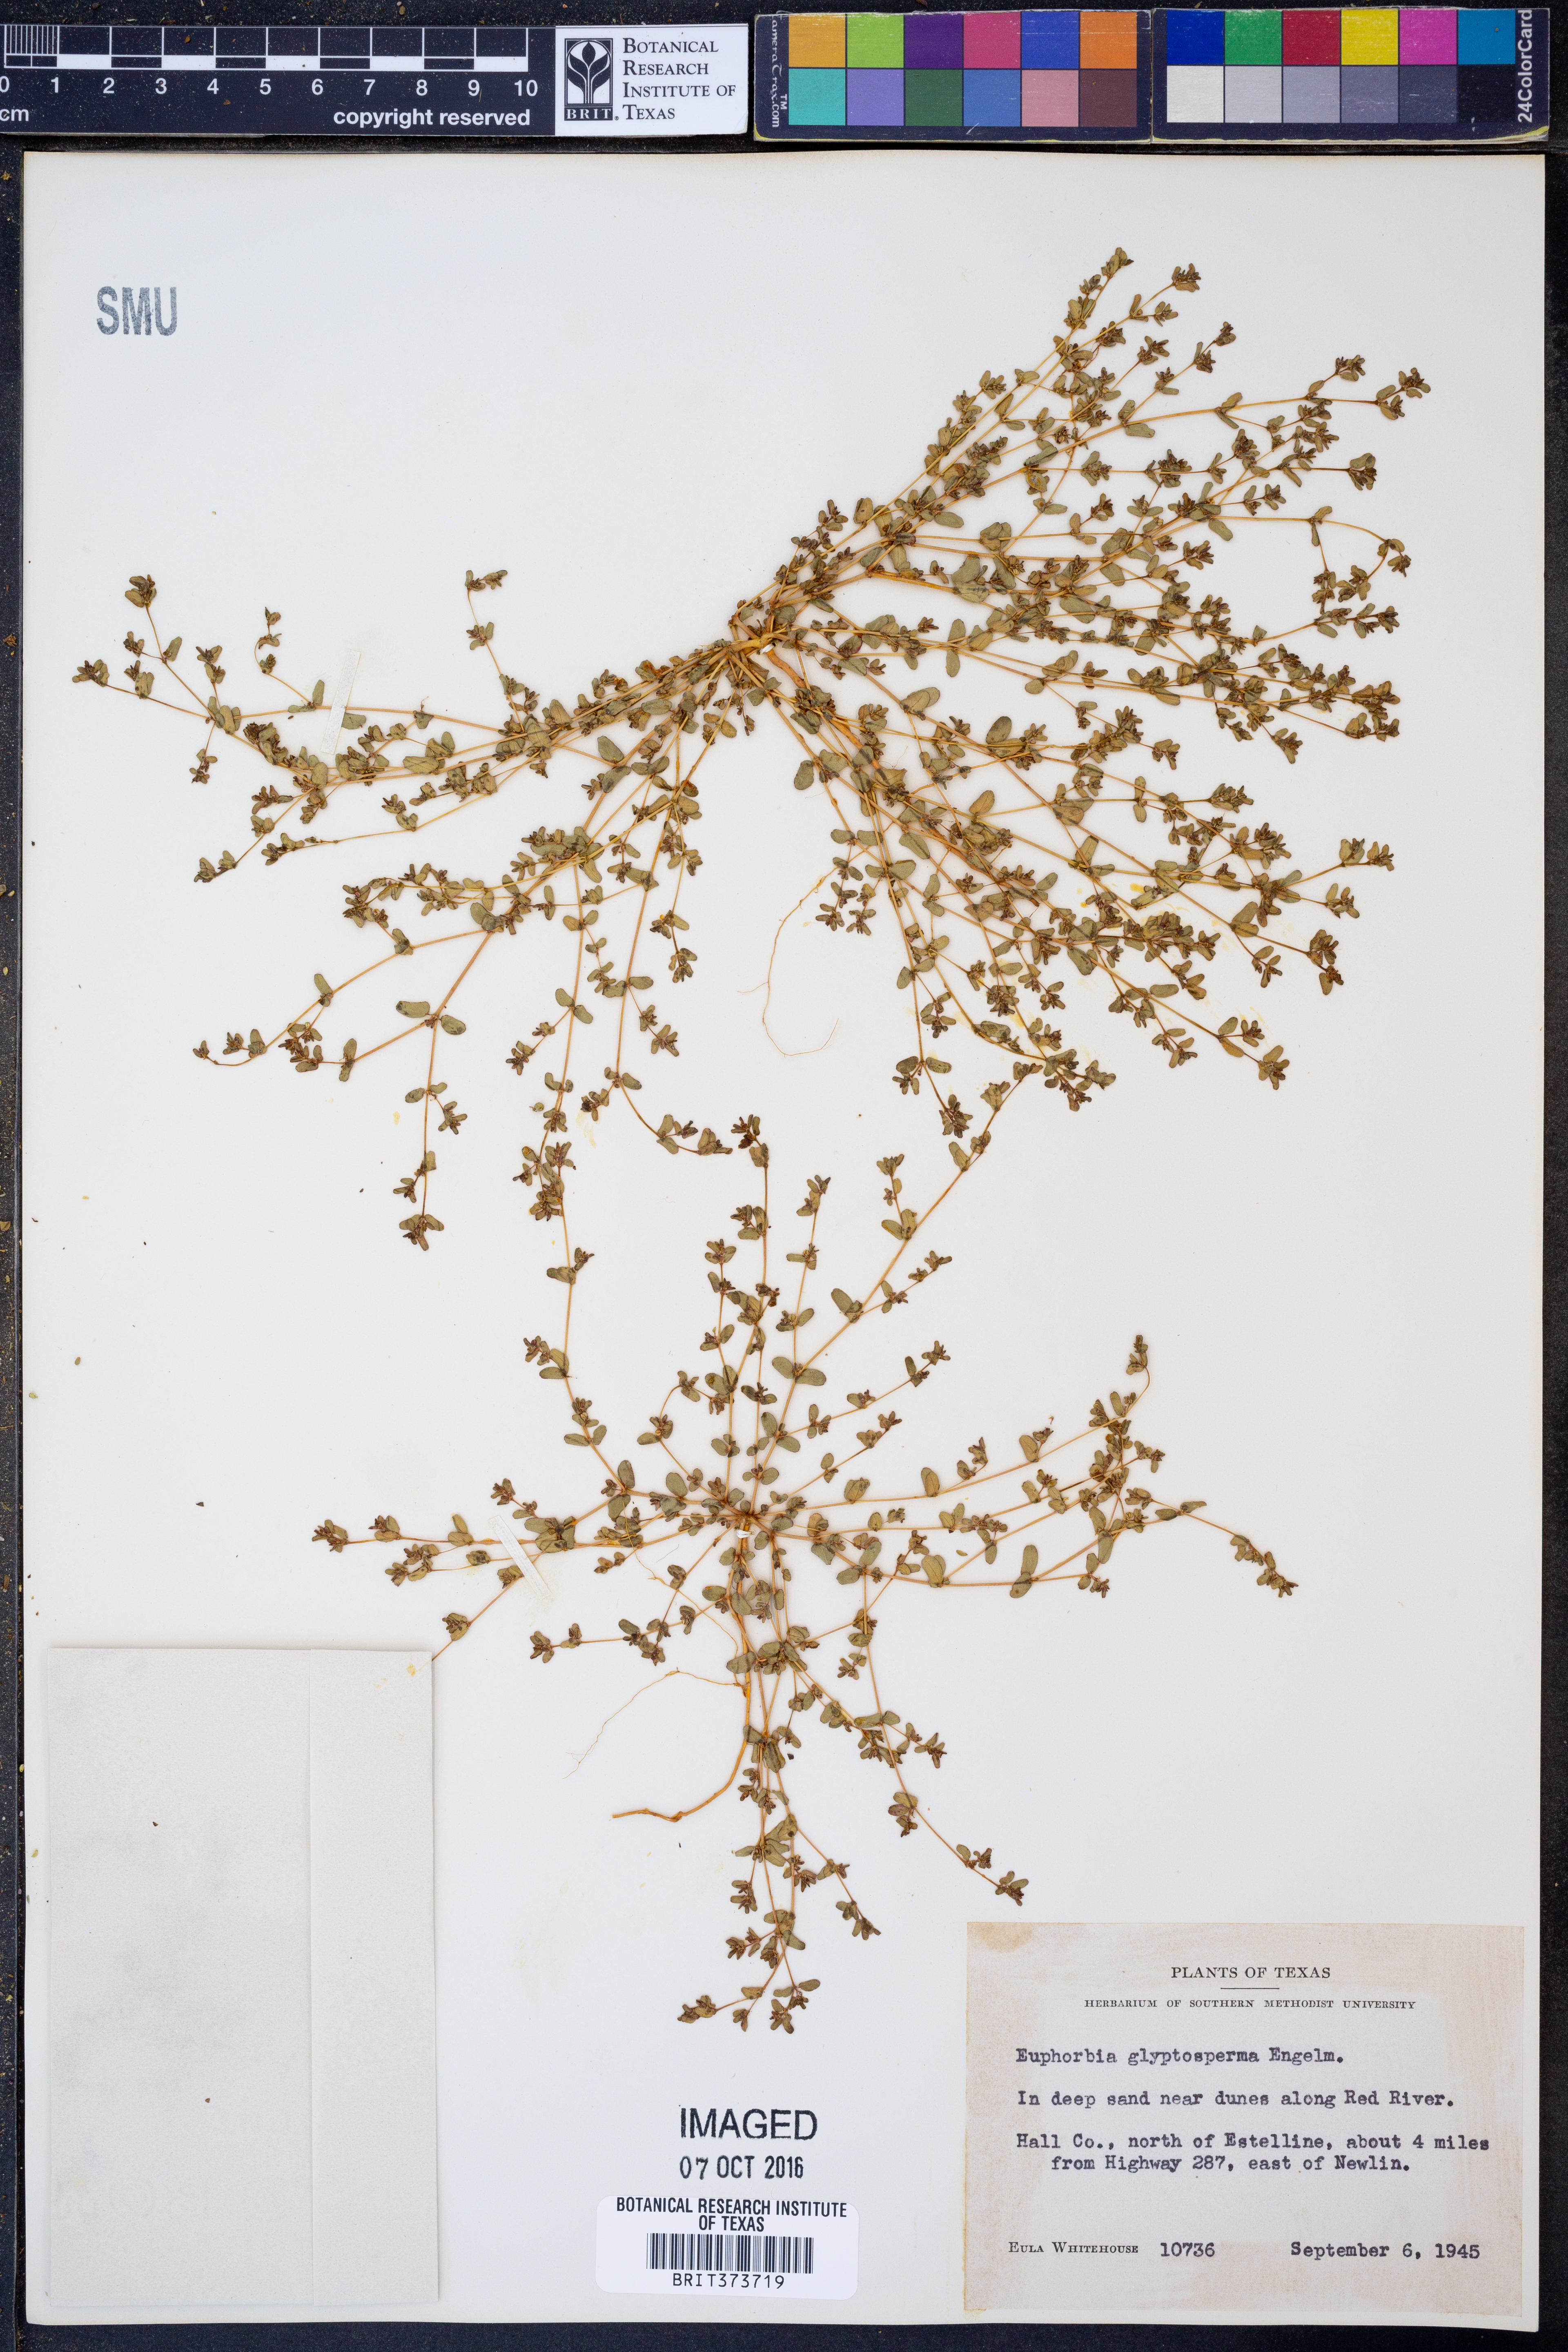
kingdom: Plantae
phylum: Tracheophyta
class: Magnoliopsida
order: Malpighiales
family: Euphorbiaceae
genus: Euphorbia
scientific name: Euphorbia glyptosperma
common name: Corrugate-seeded spurge
